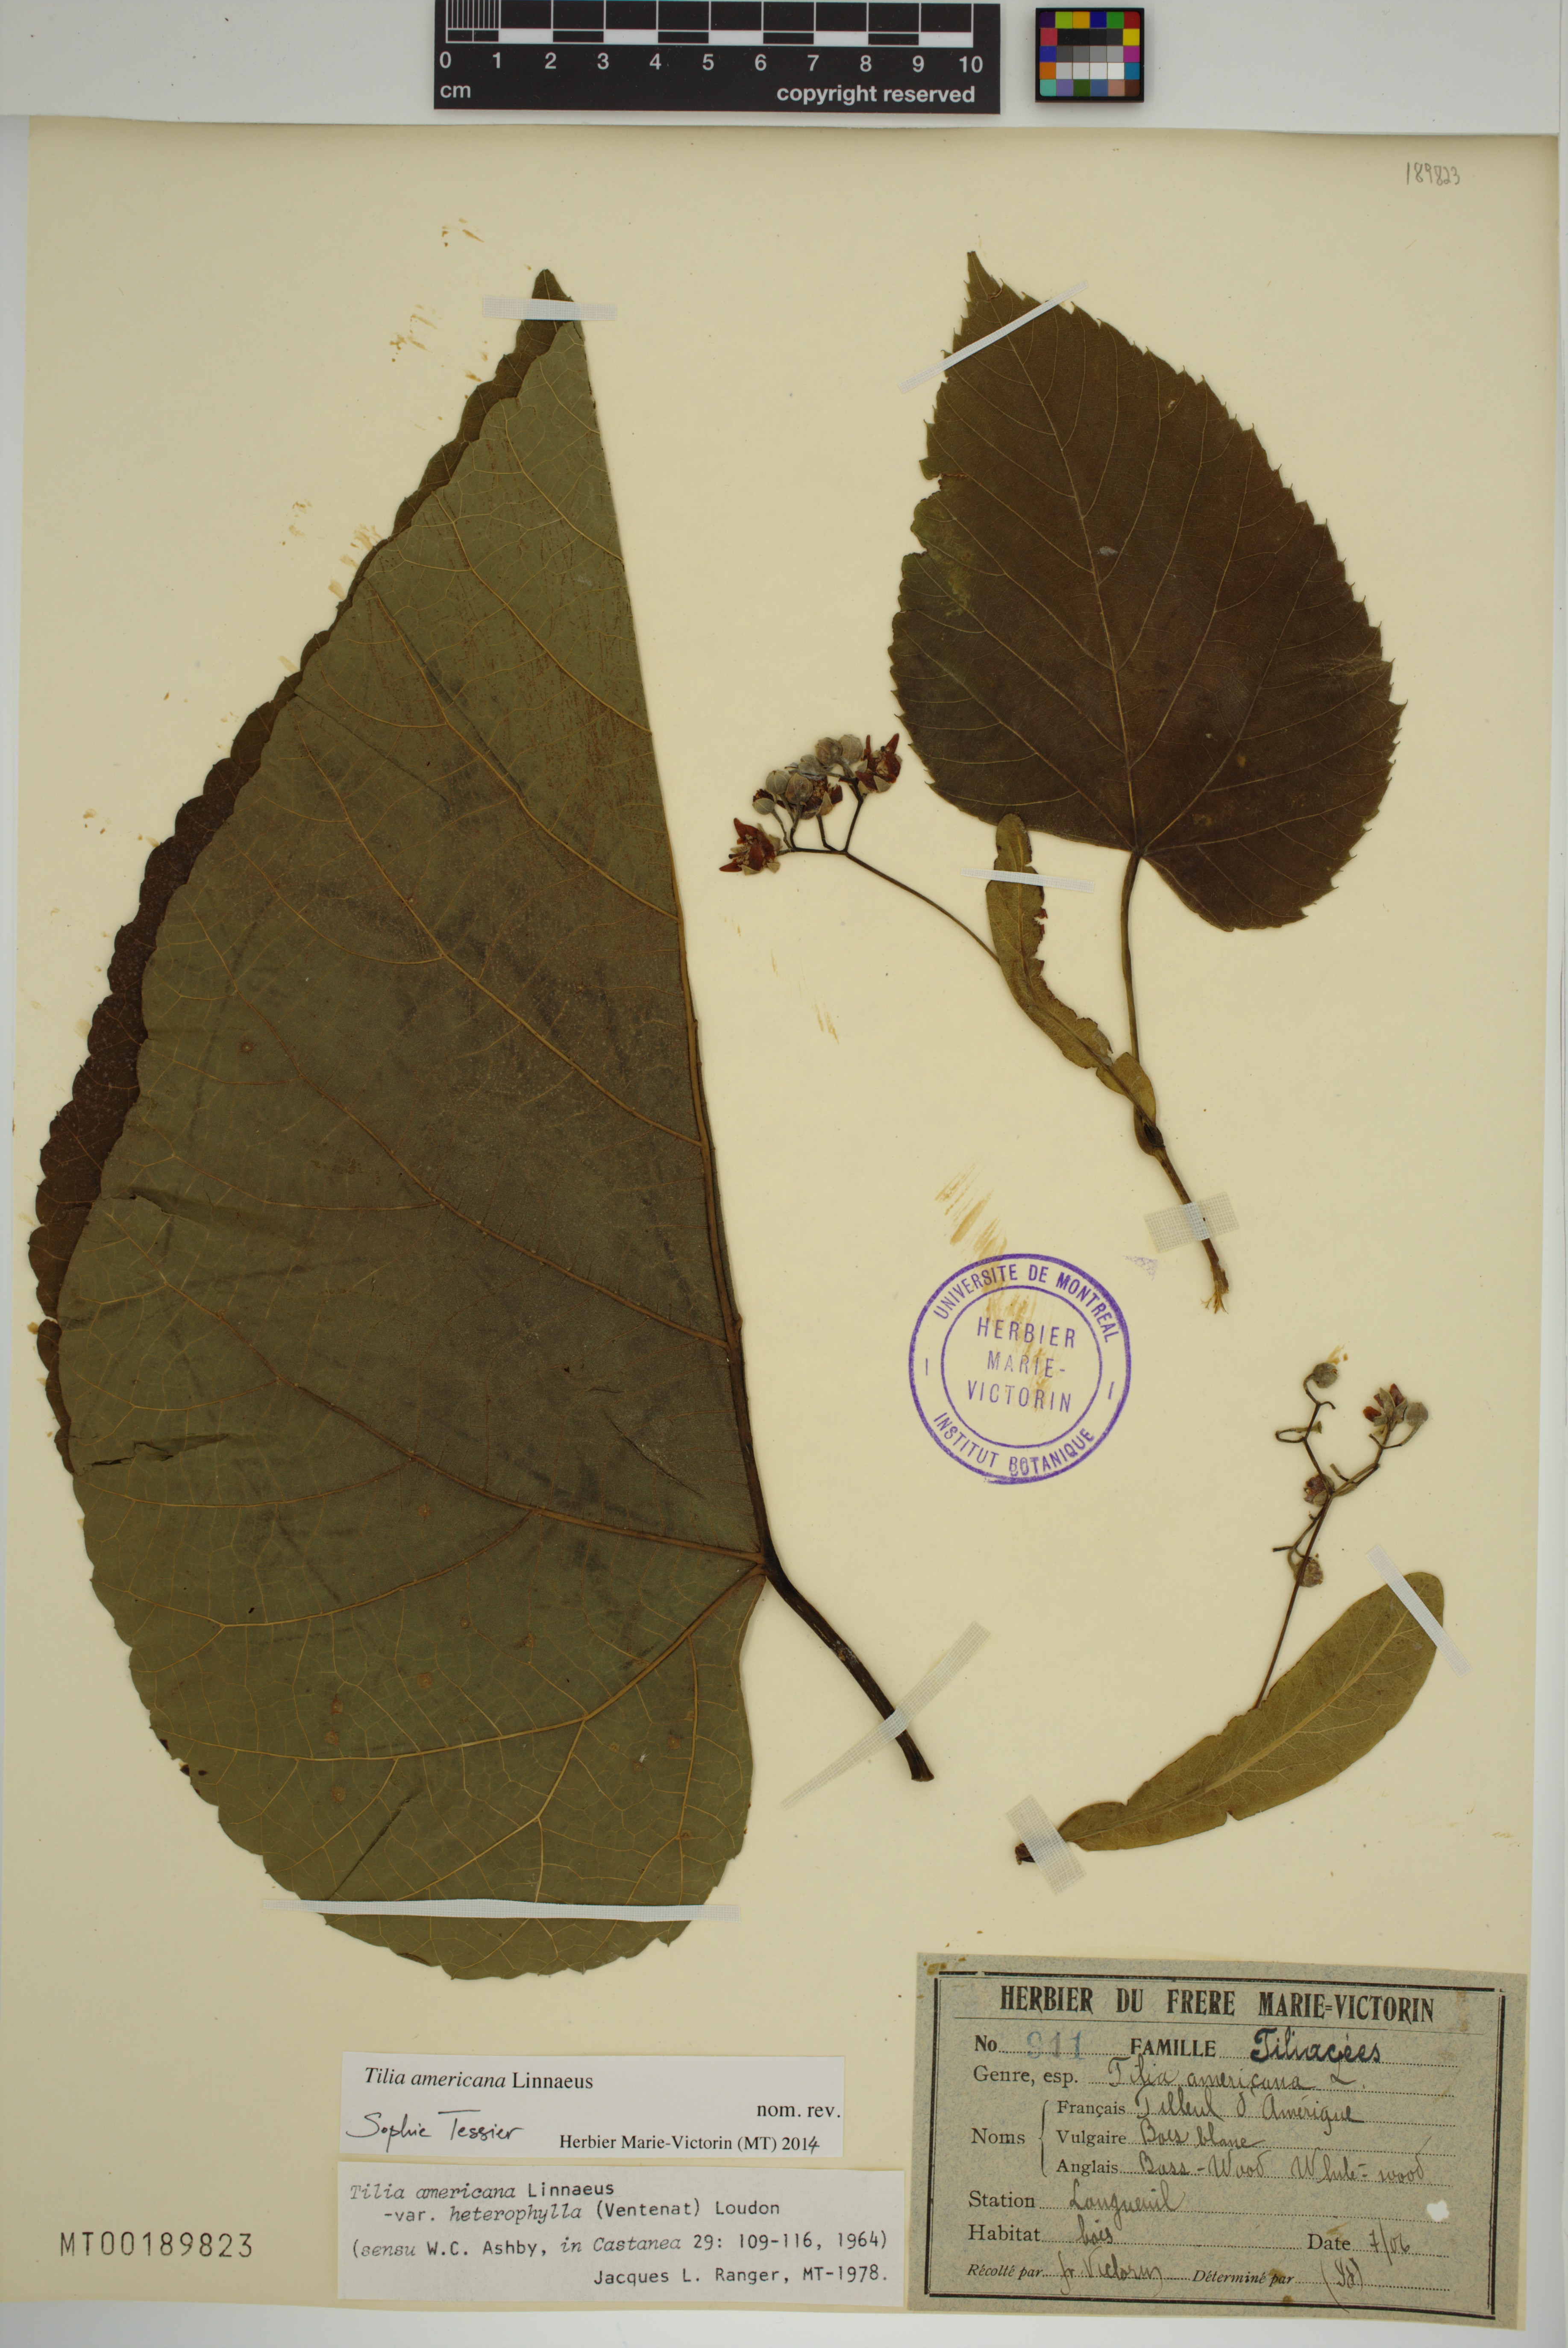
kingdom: Plantae
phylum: Tracheophyta
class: Magnoliopsida
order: Malvales
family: Malvaceae
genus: Tilia
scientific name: Tilia americana
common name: Basswood
